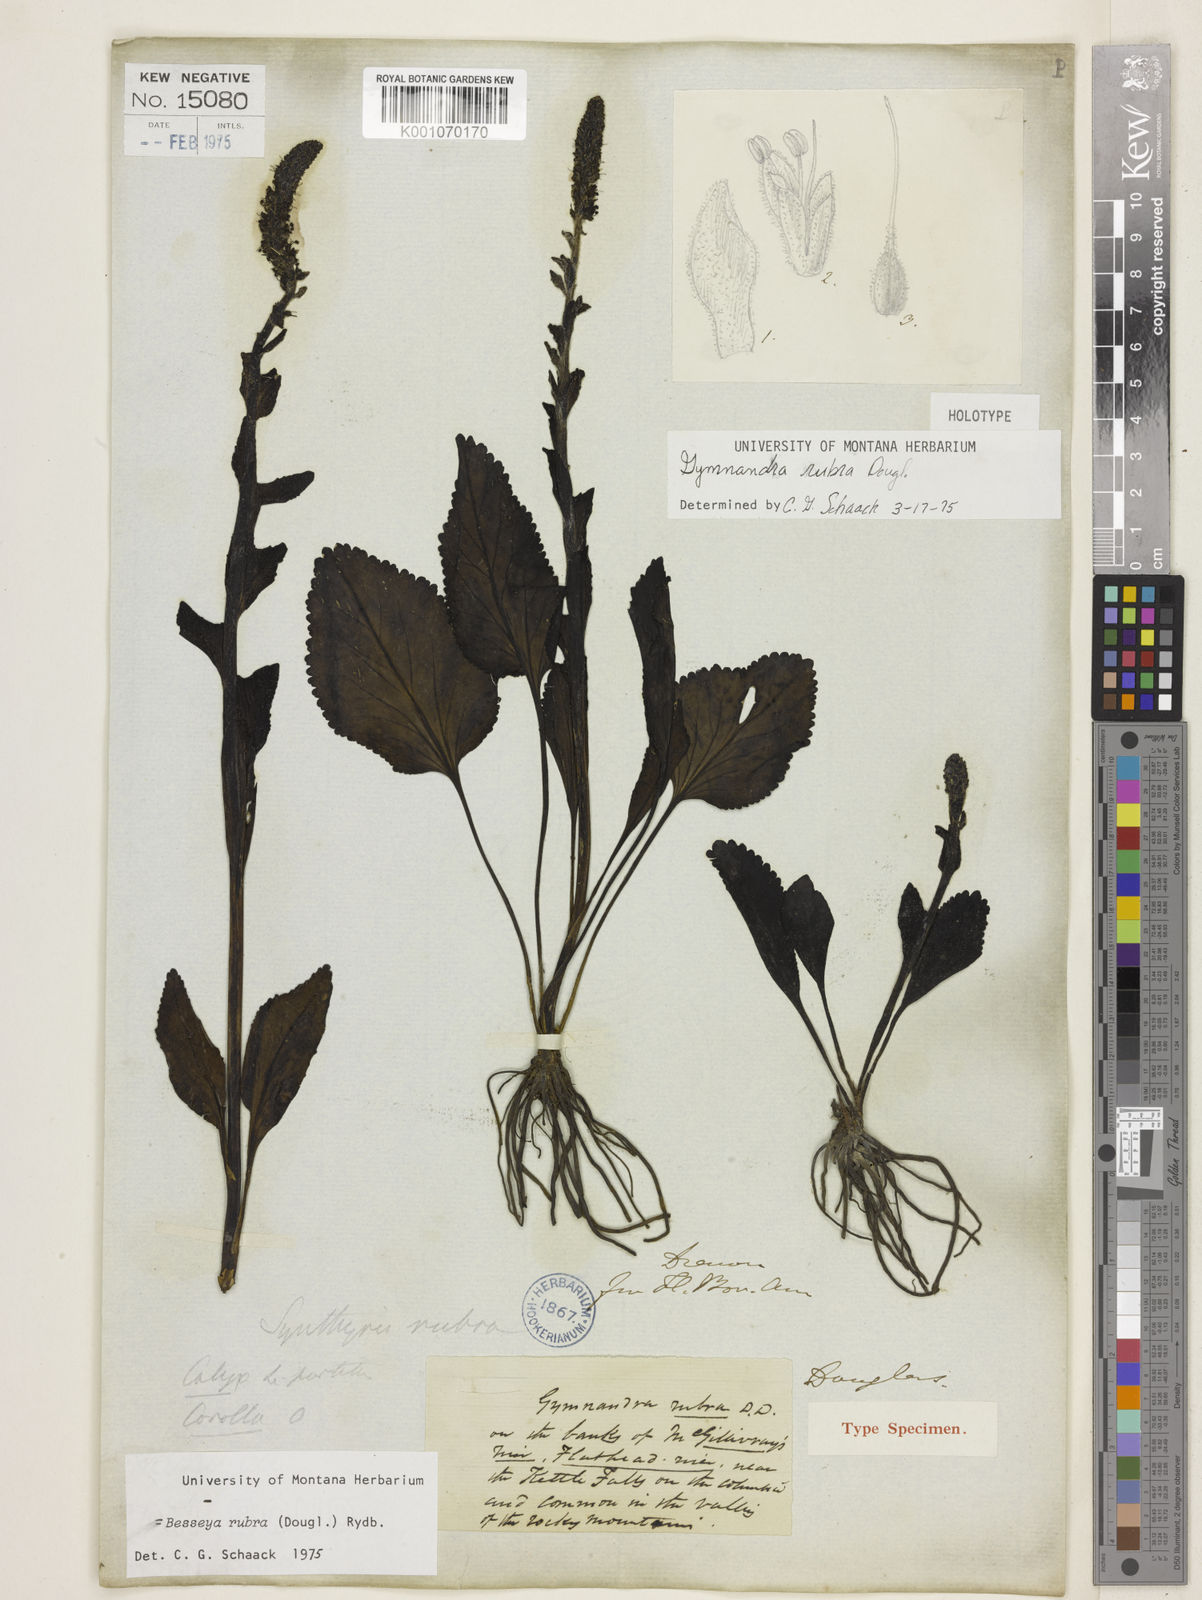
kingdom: Plantae
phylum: Tracheophyta
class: Magnoliopsida
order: Lamiales
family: Plantaginaceae
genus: Synthyris
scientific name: Synthyris rubra
